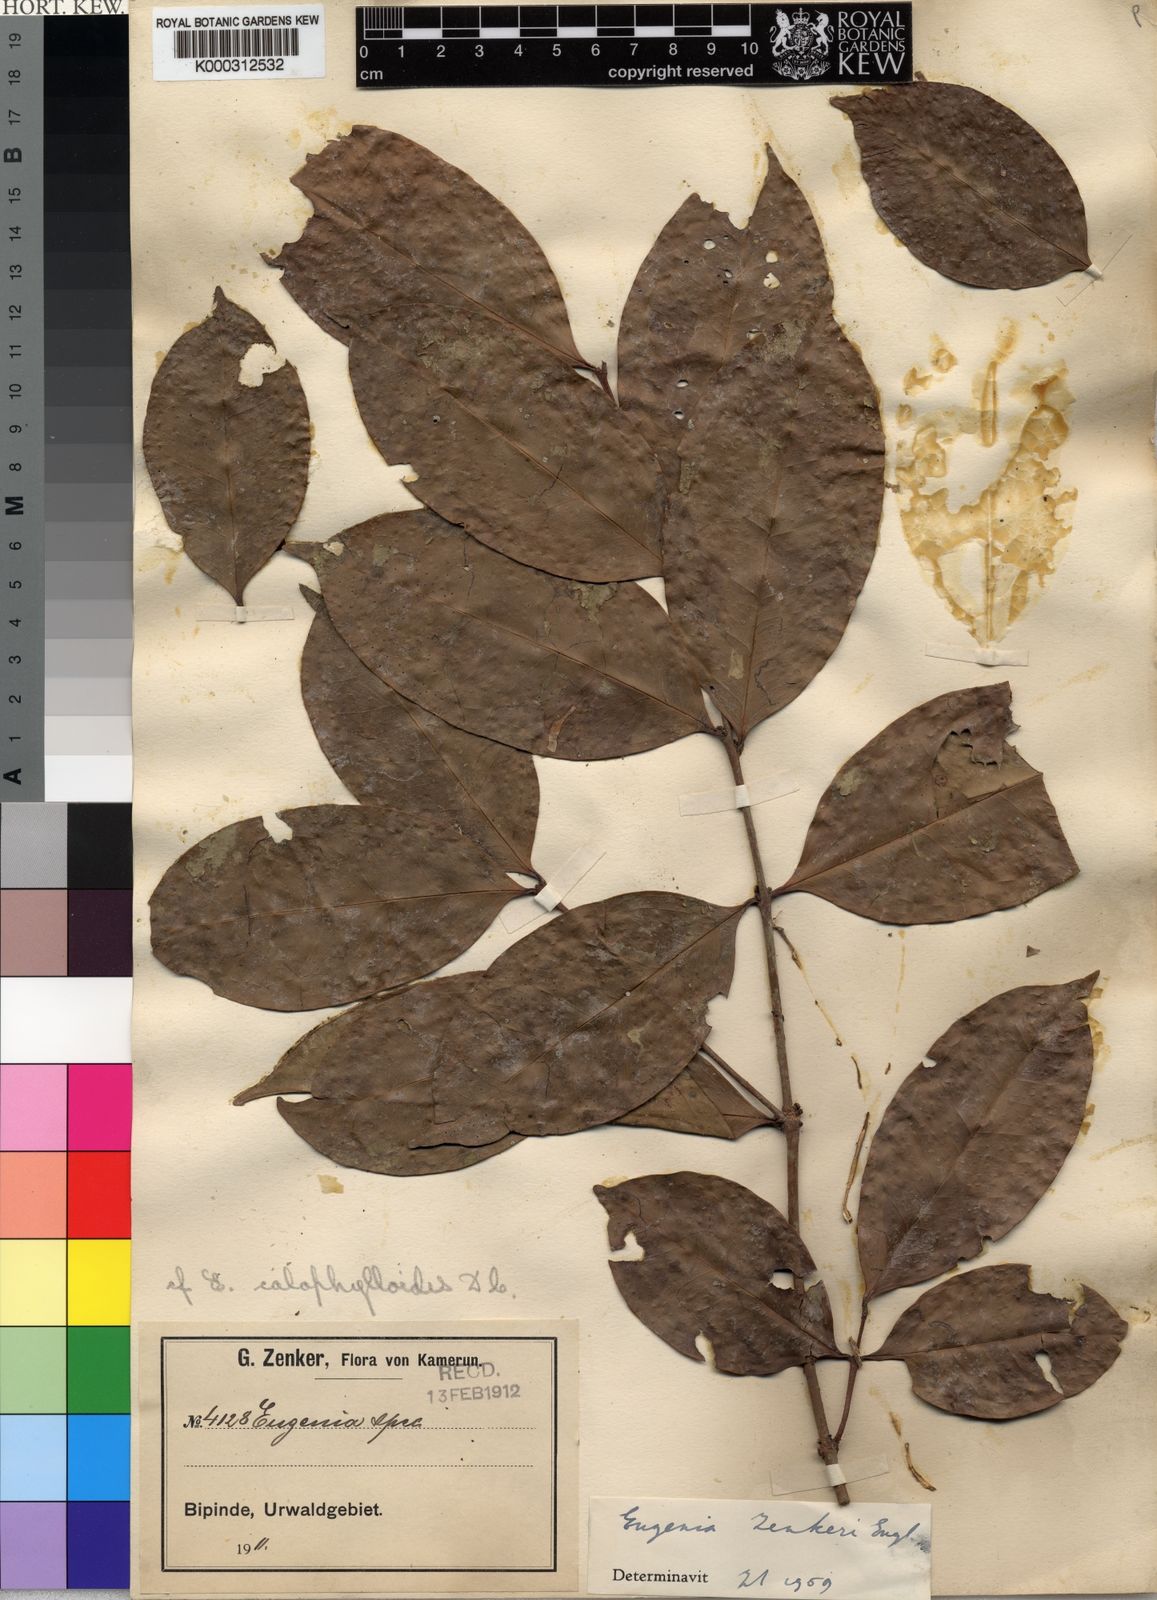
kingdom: Plantae
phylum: Tracheophyta
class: Magnoliopsida
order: Myrtales
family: Myrtaceae
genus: Eugenia
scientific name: Eugenia zenkeri
